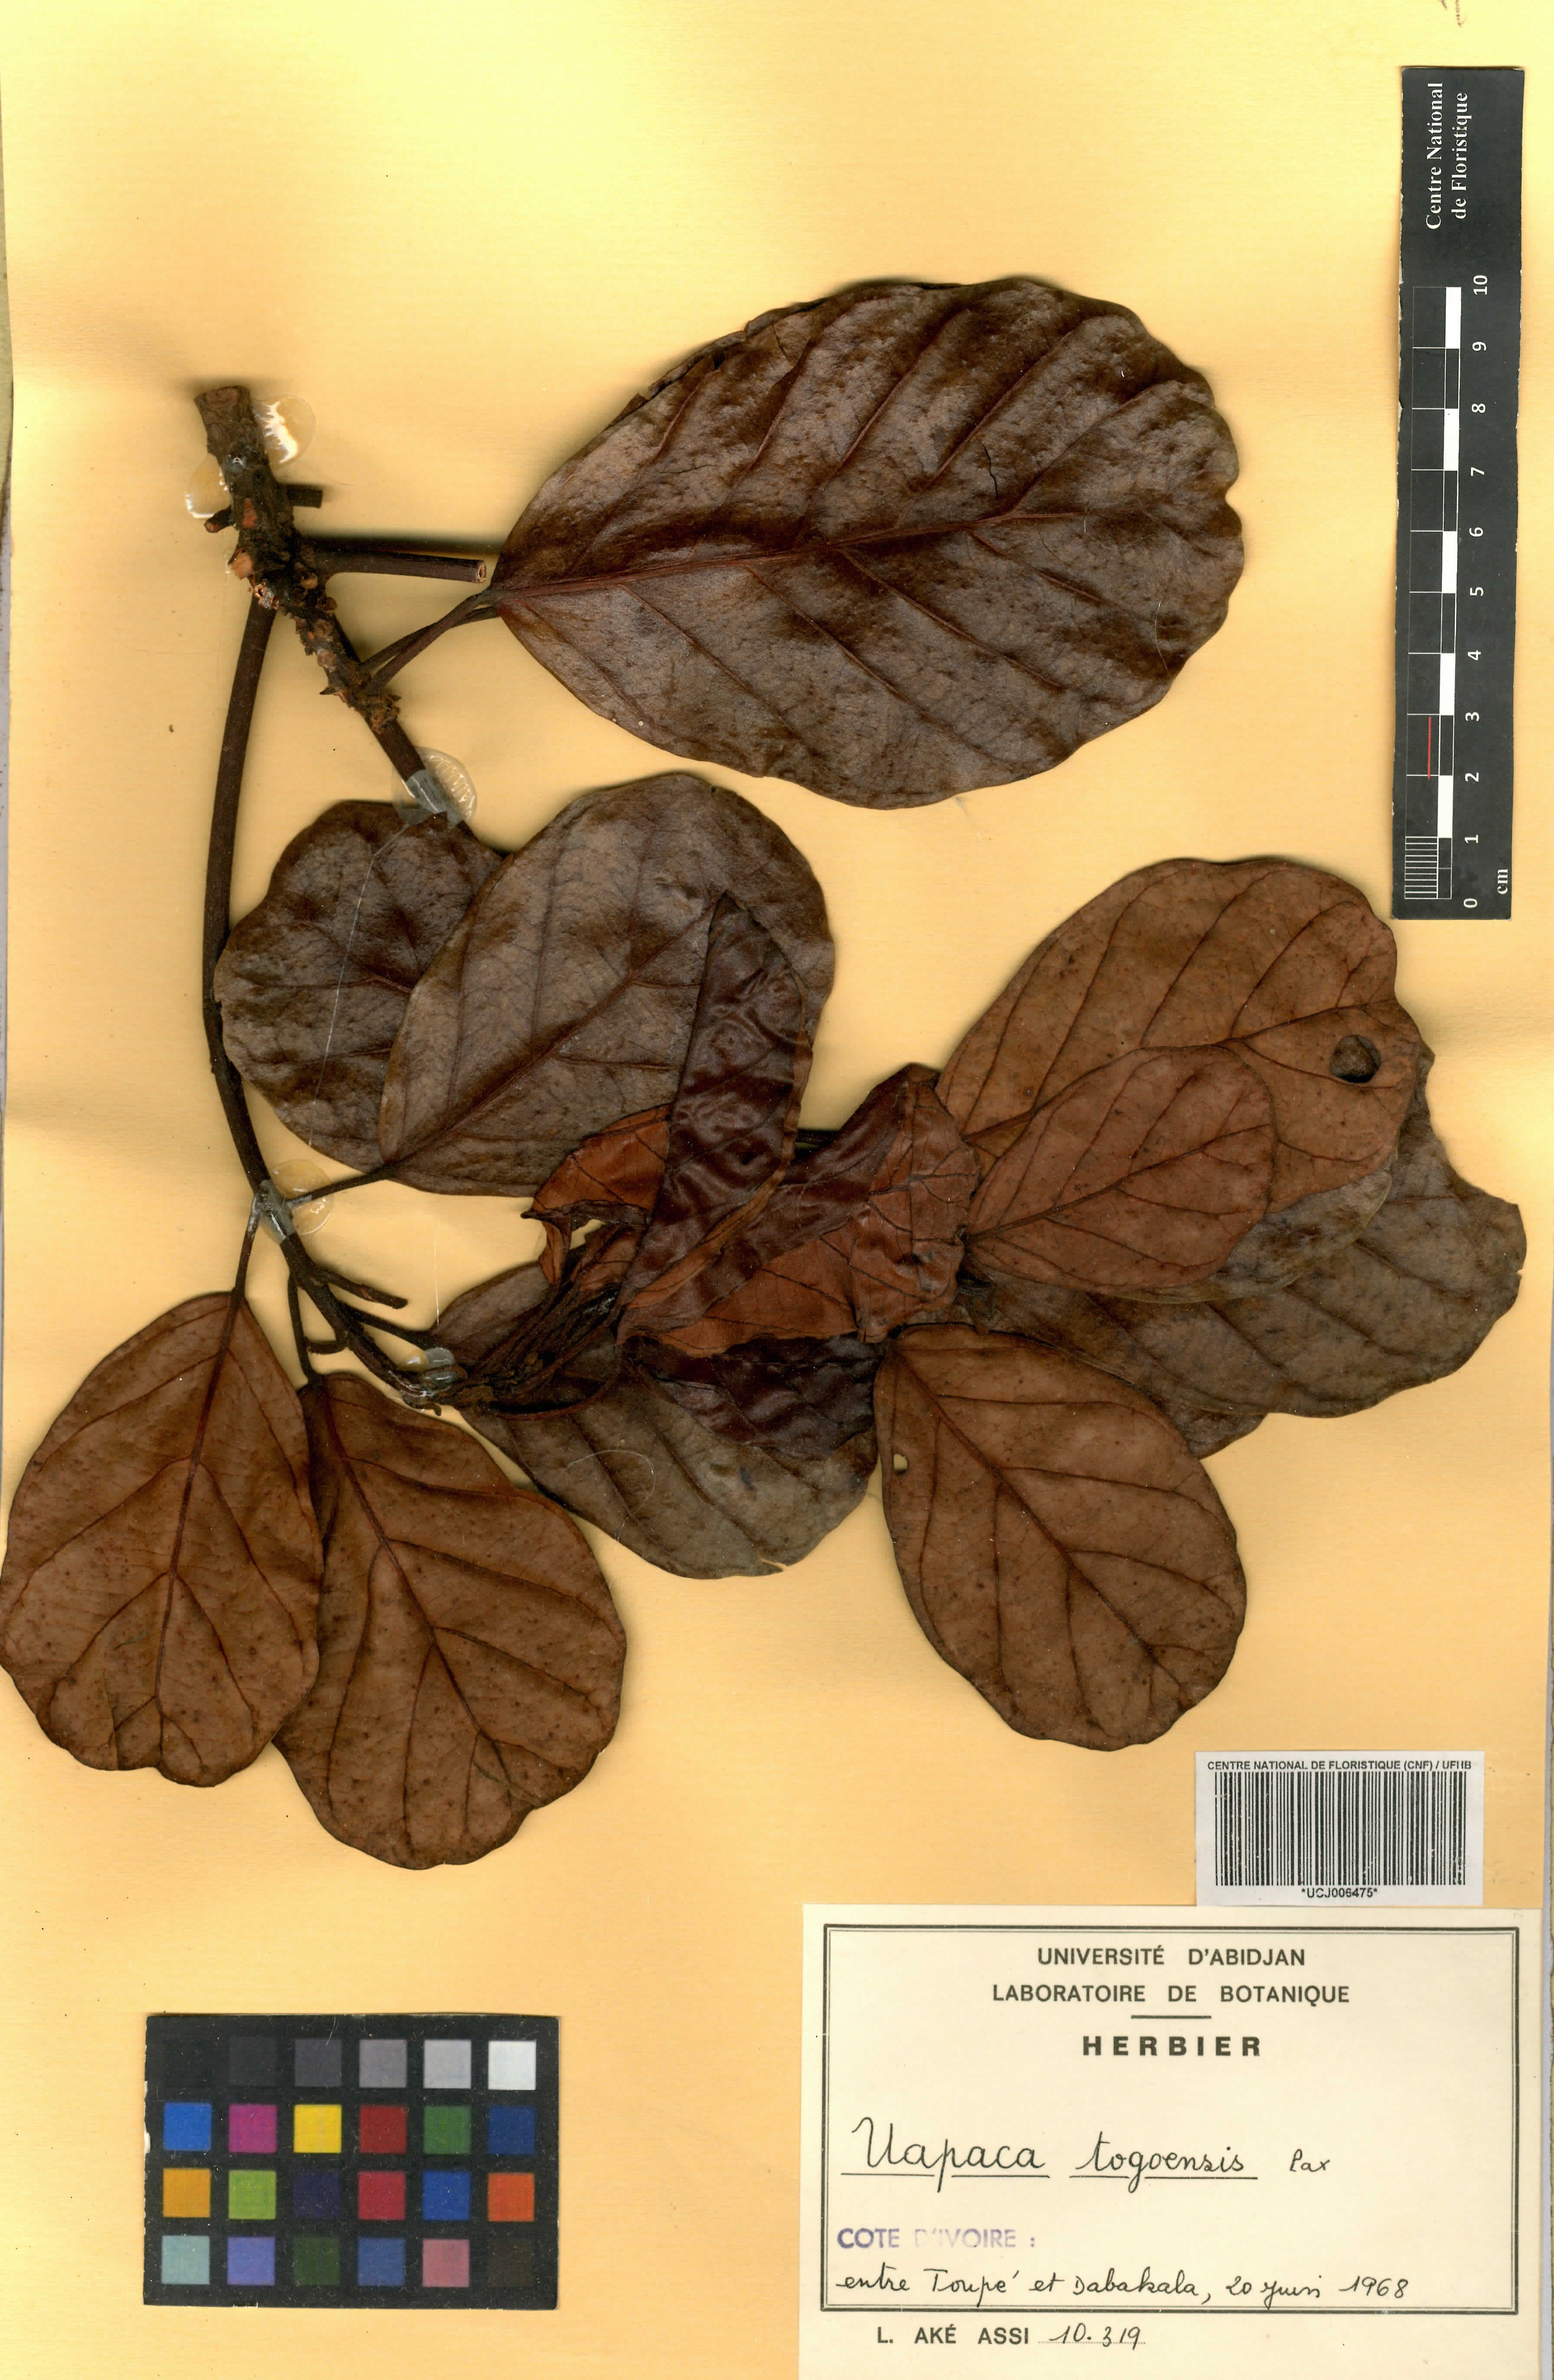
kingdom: Plantae
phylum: Tracheophyta
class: Magnoliopsida
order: Malpighiales
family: Phyllanthaceae
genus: Uapaca
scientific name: Uapaca togoensis
